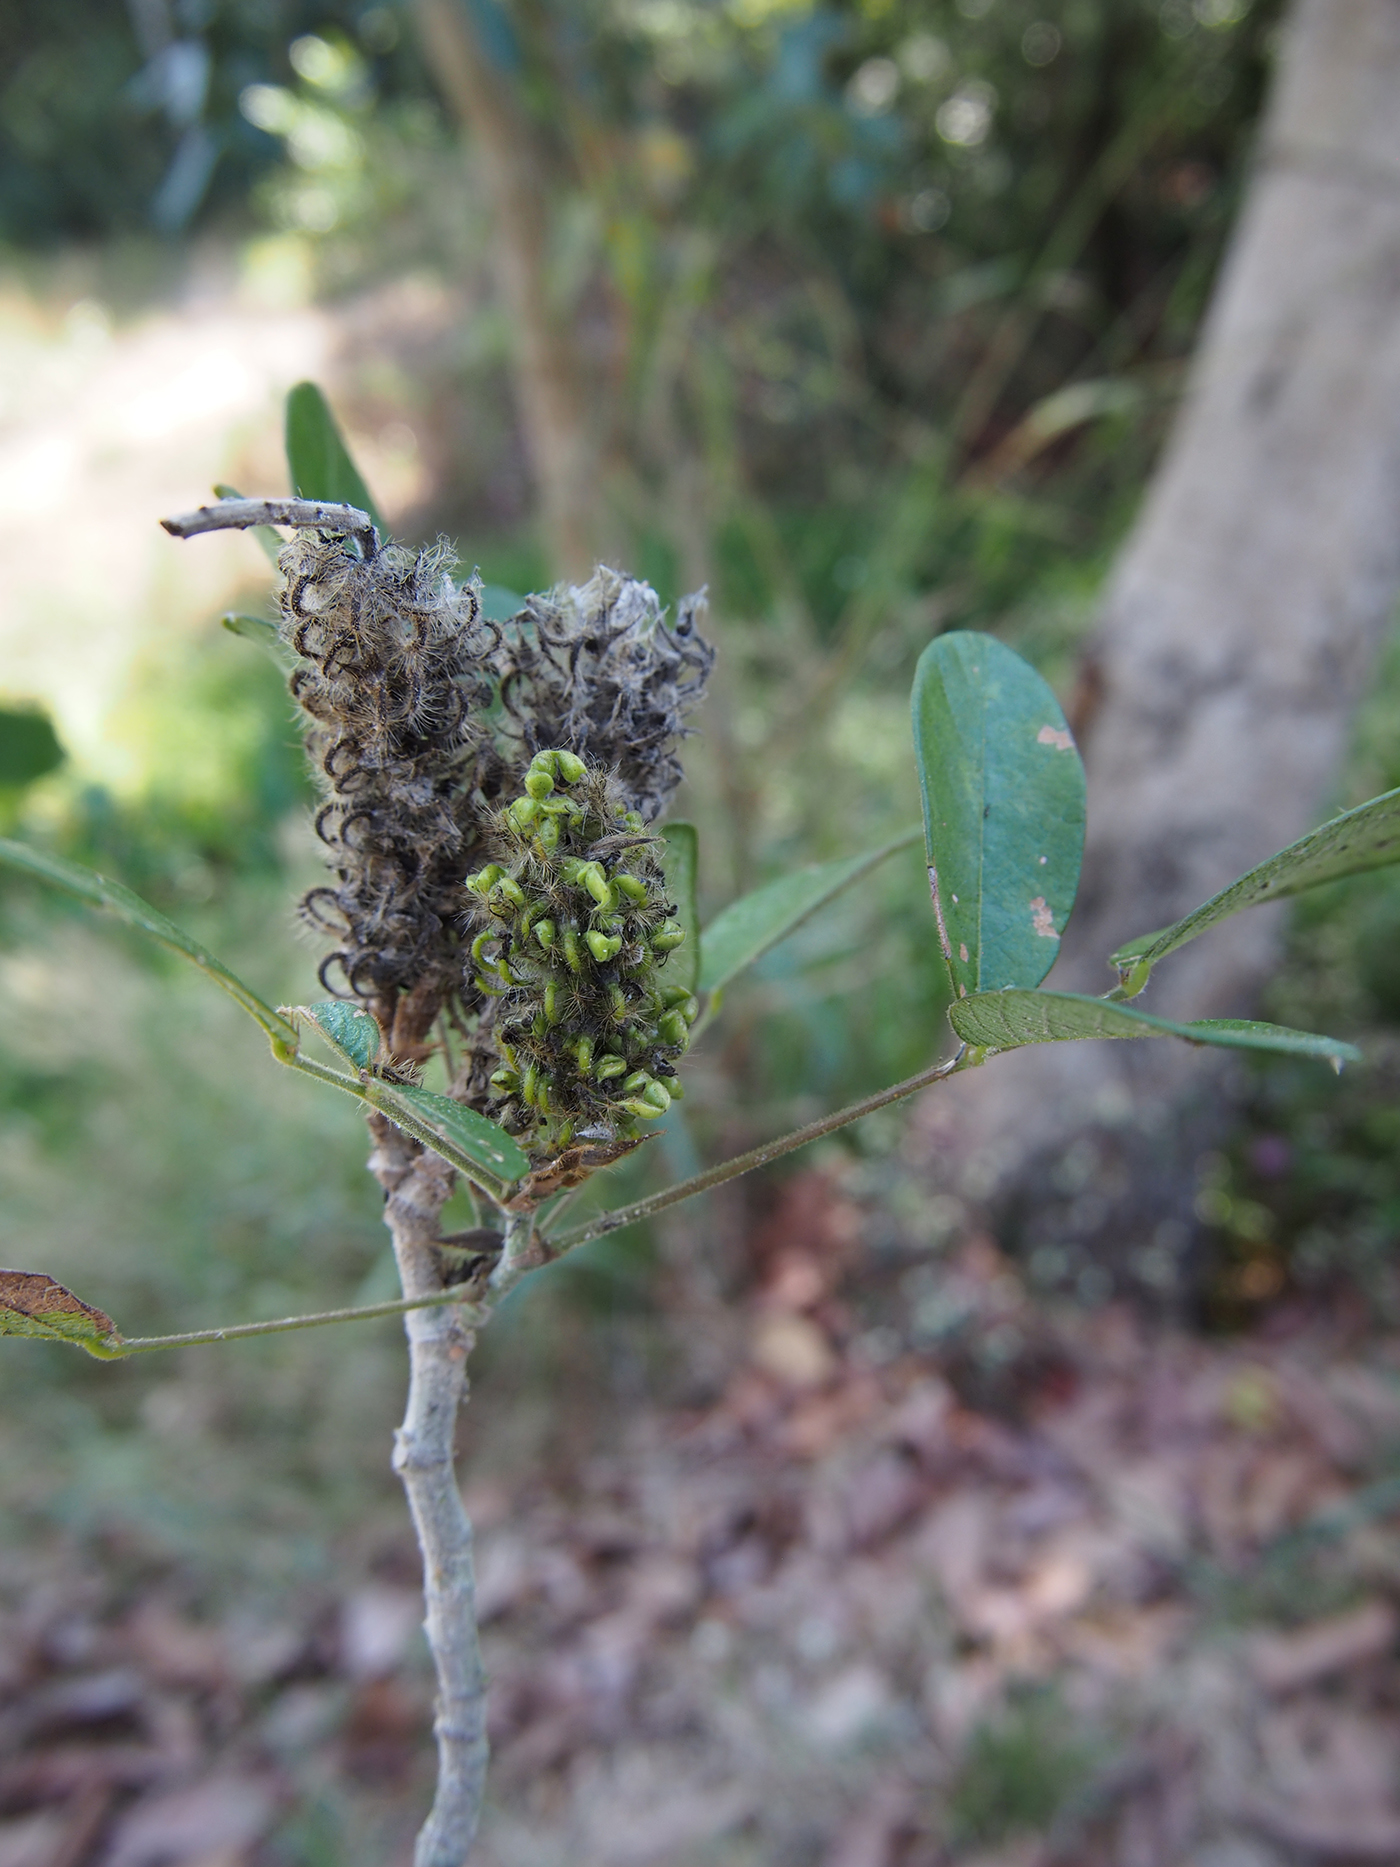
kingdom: Plantae
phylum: Tracheophyta
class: Magnoliopsida
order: Fabales
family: Fabaceae
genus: Uraria
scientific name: Uraria
